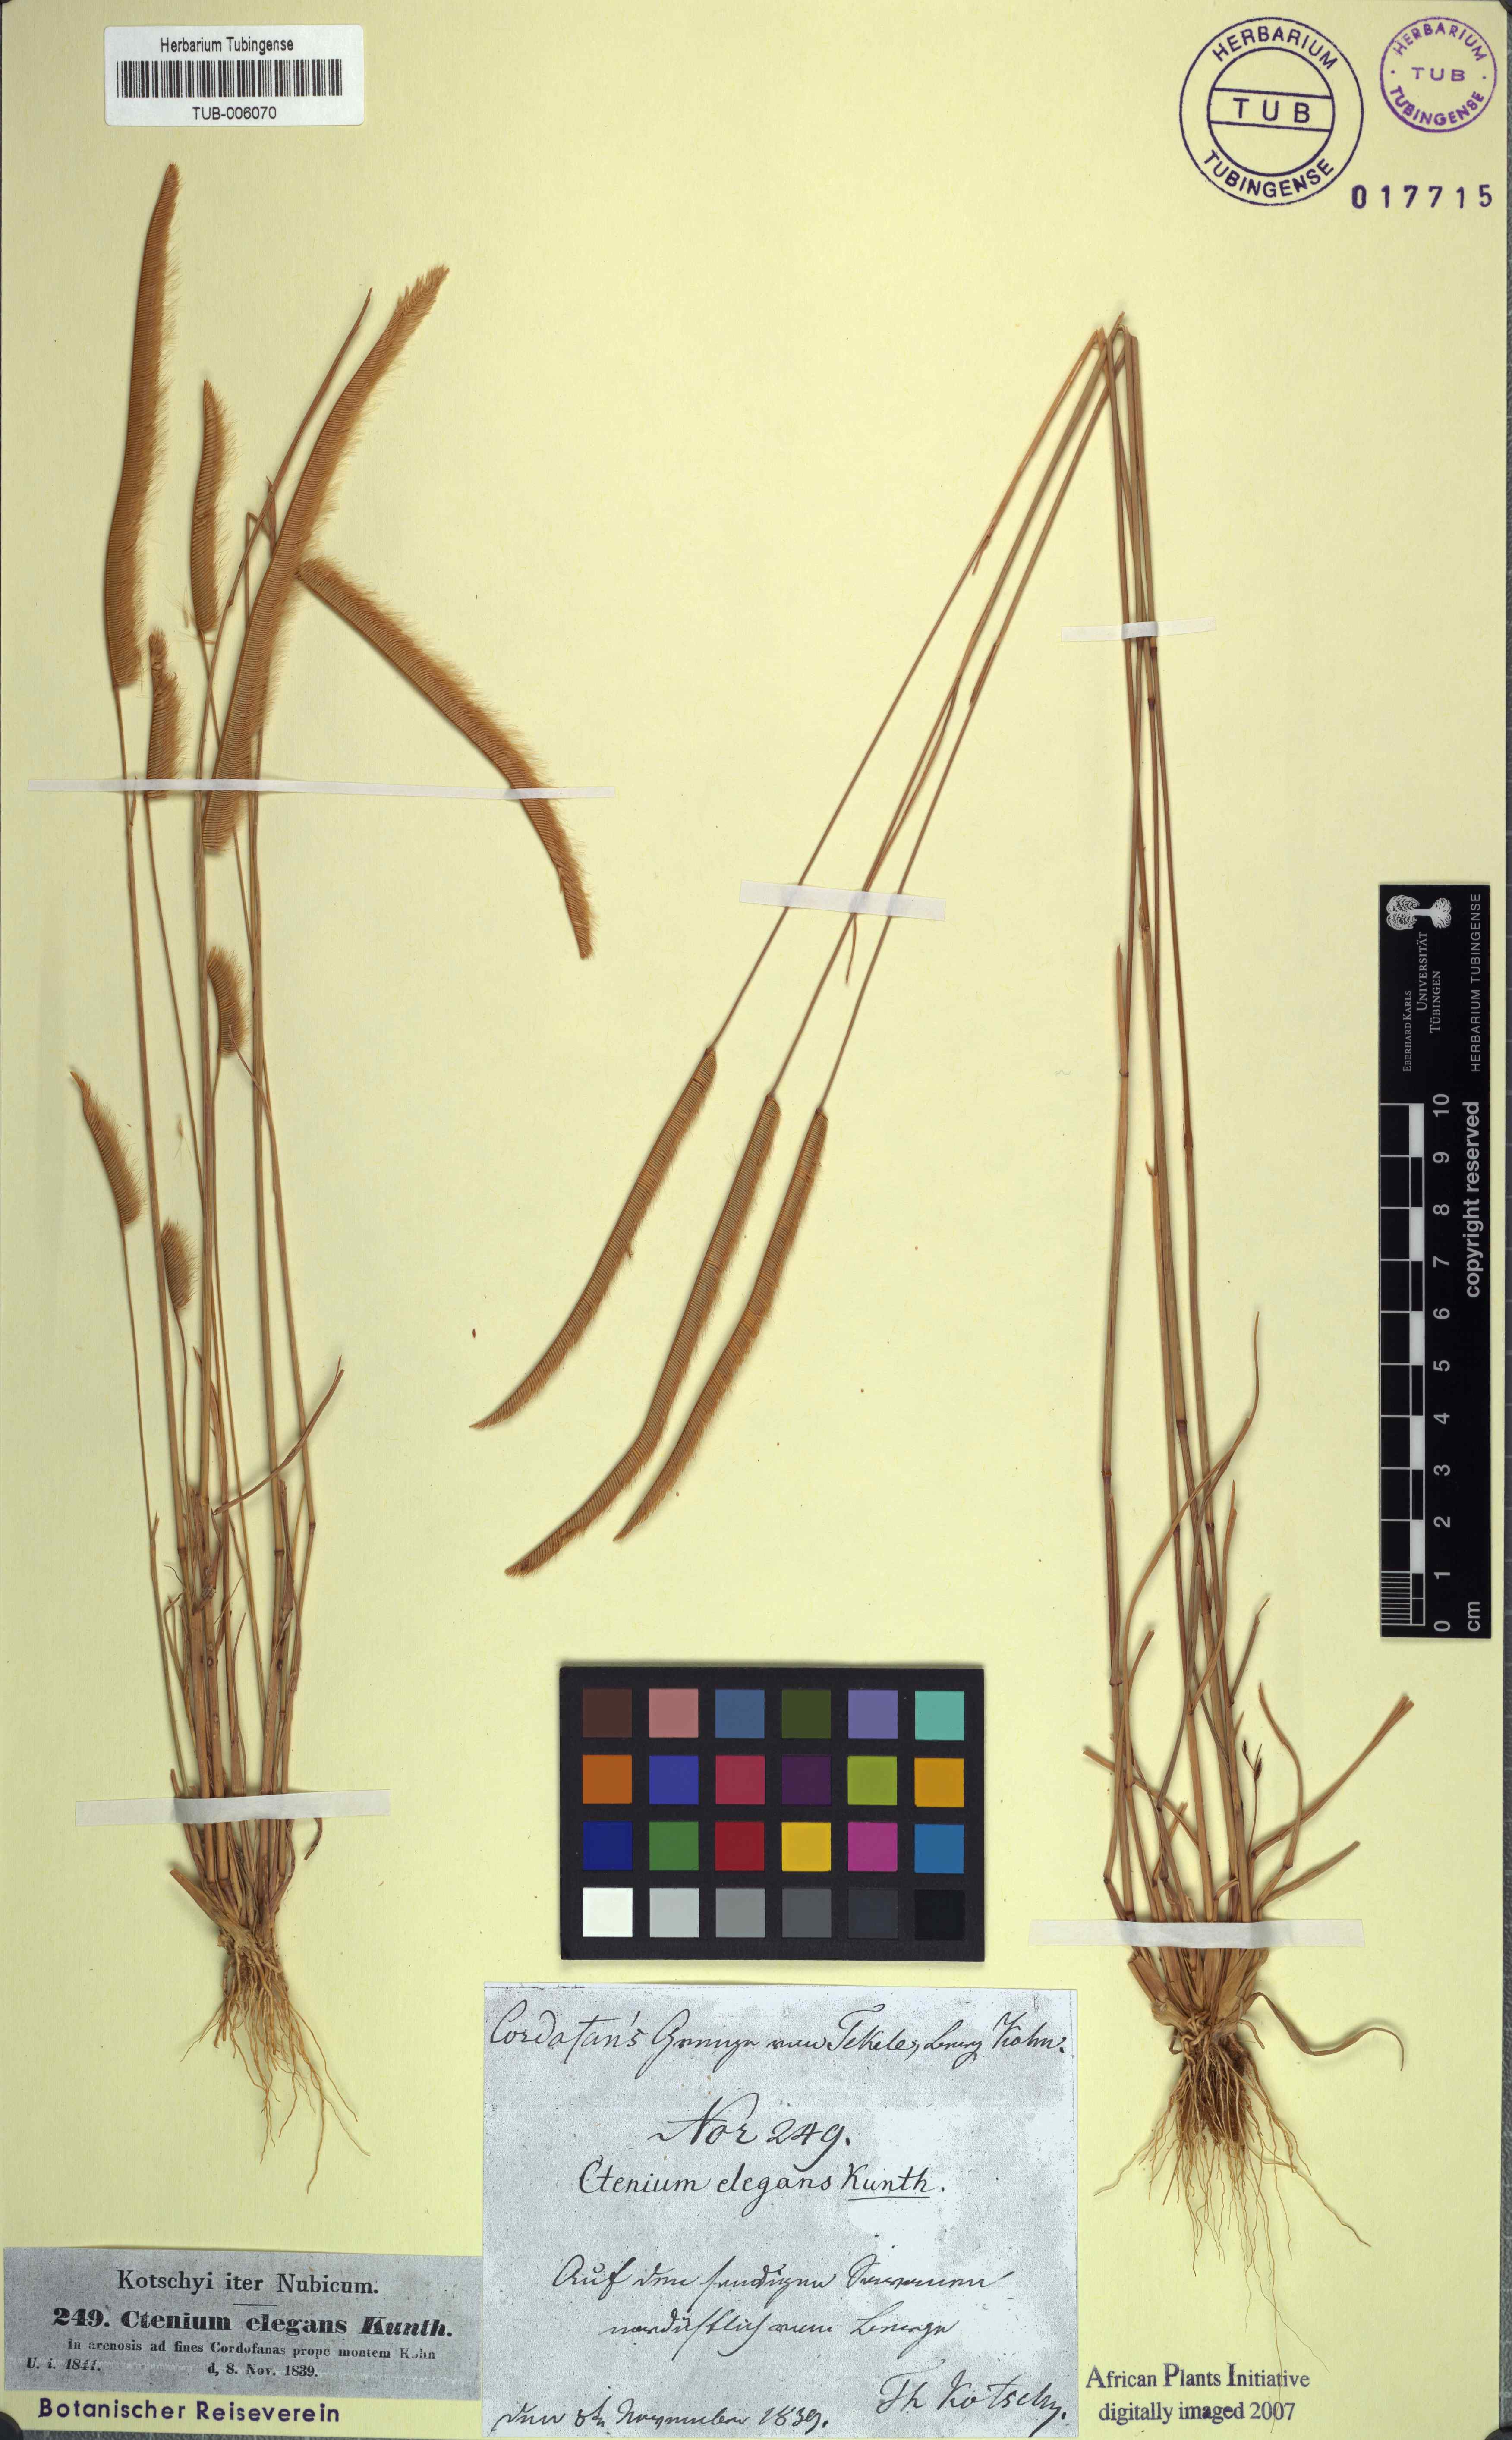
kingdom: Plantae
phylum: Tracheophyta
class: Liliopsida
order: Poales
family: Poaceae
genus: Ctenium
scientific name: Ctenium elegans
